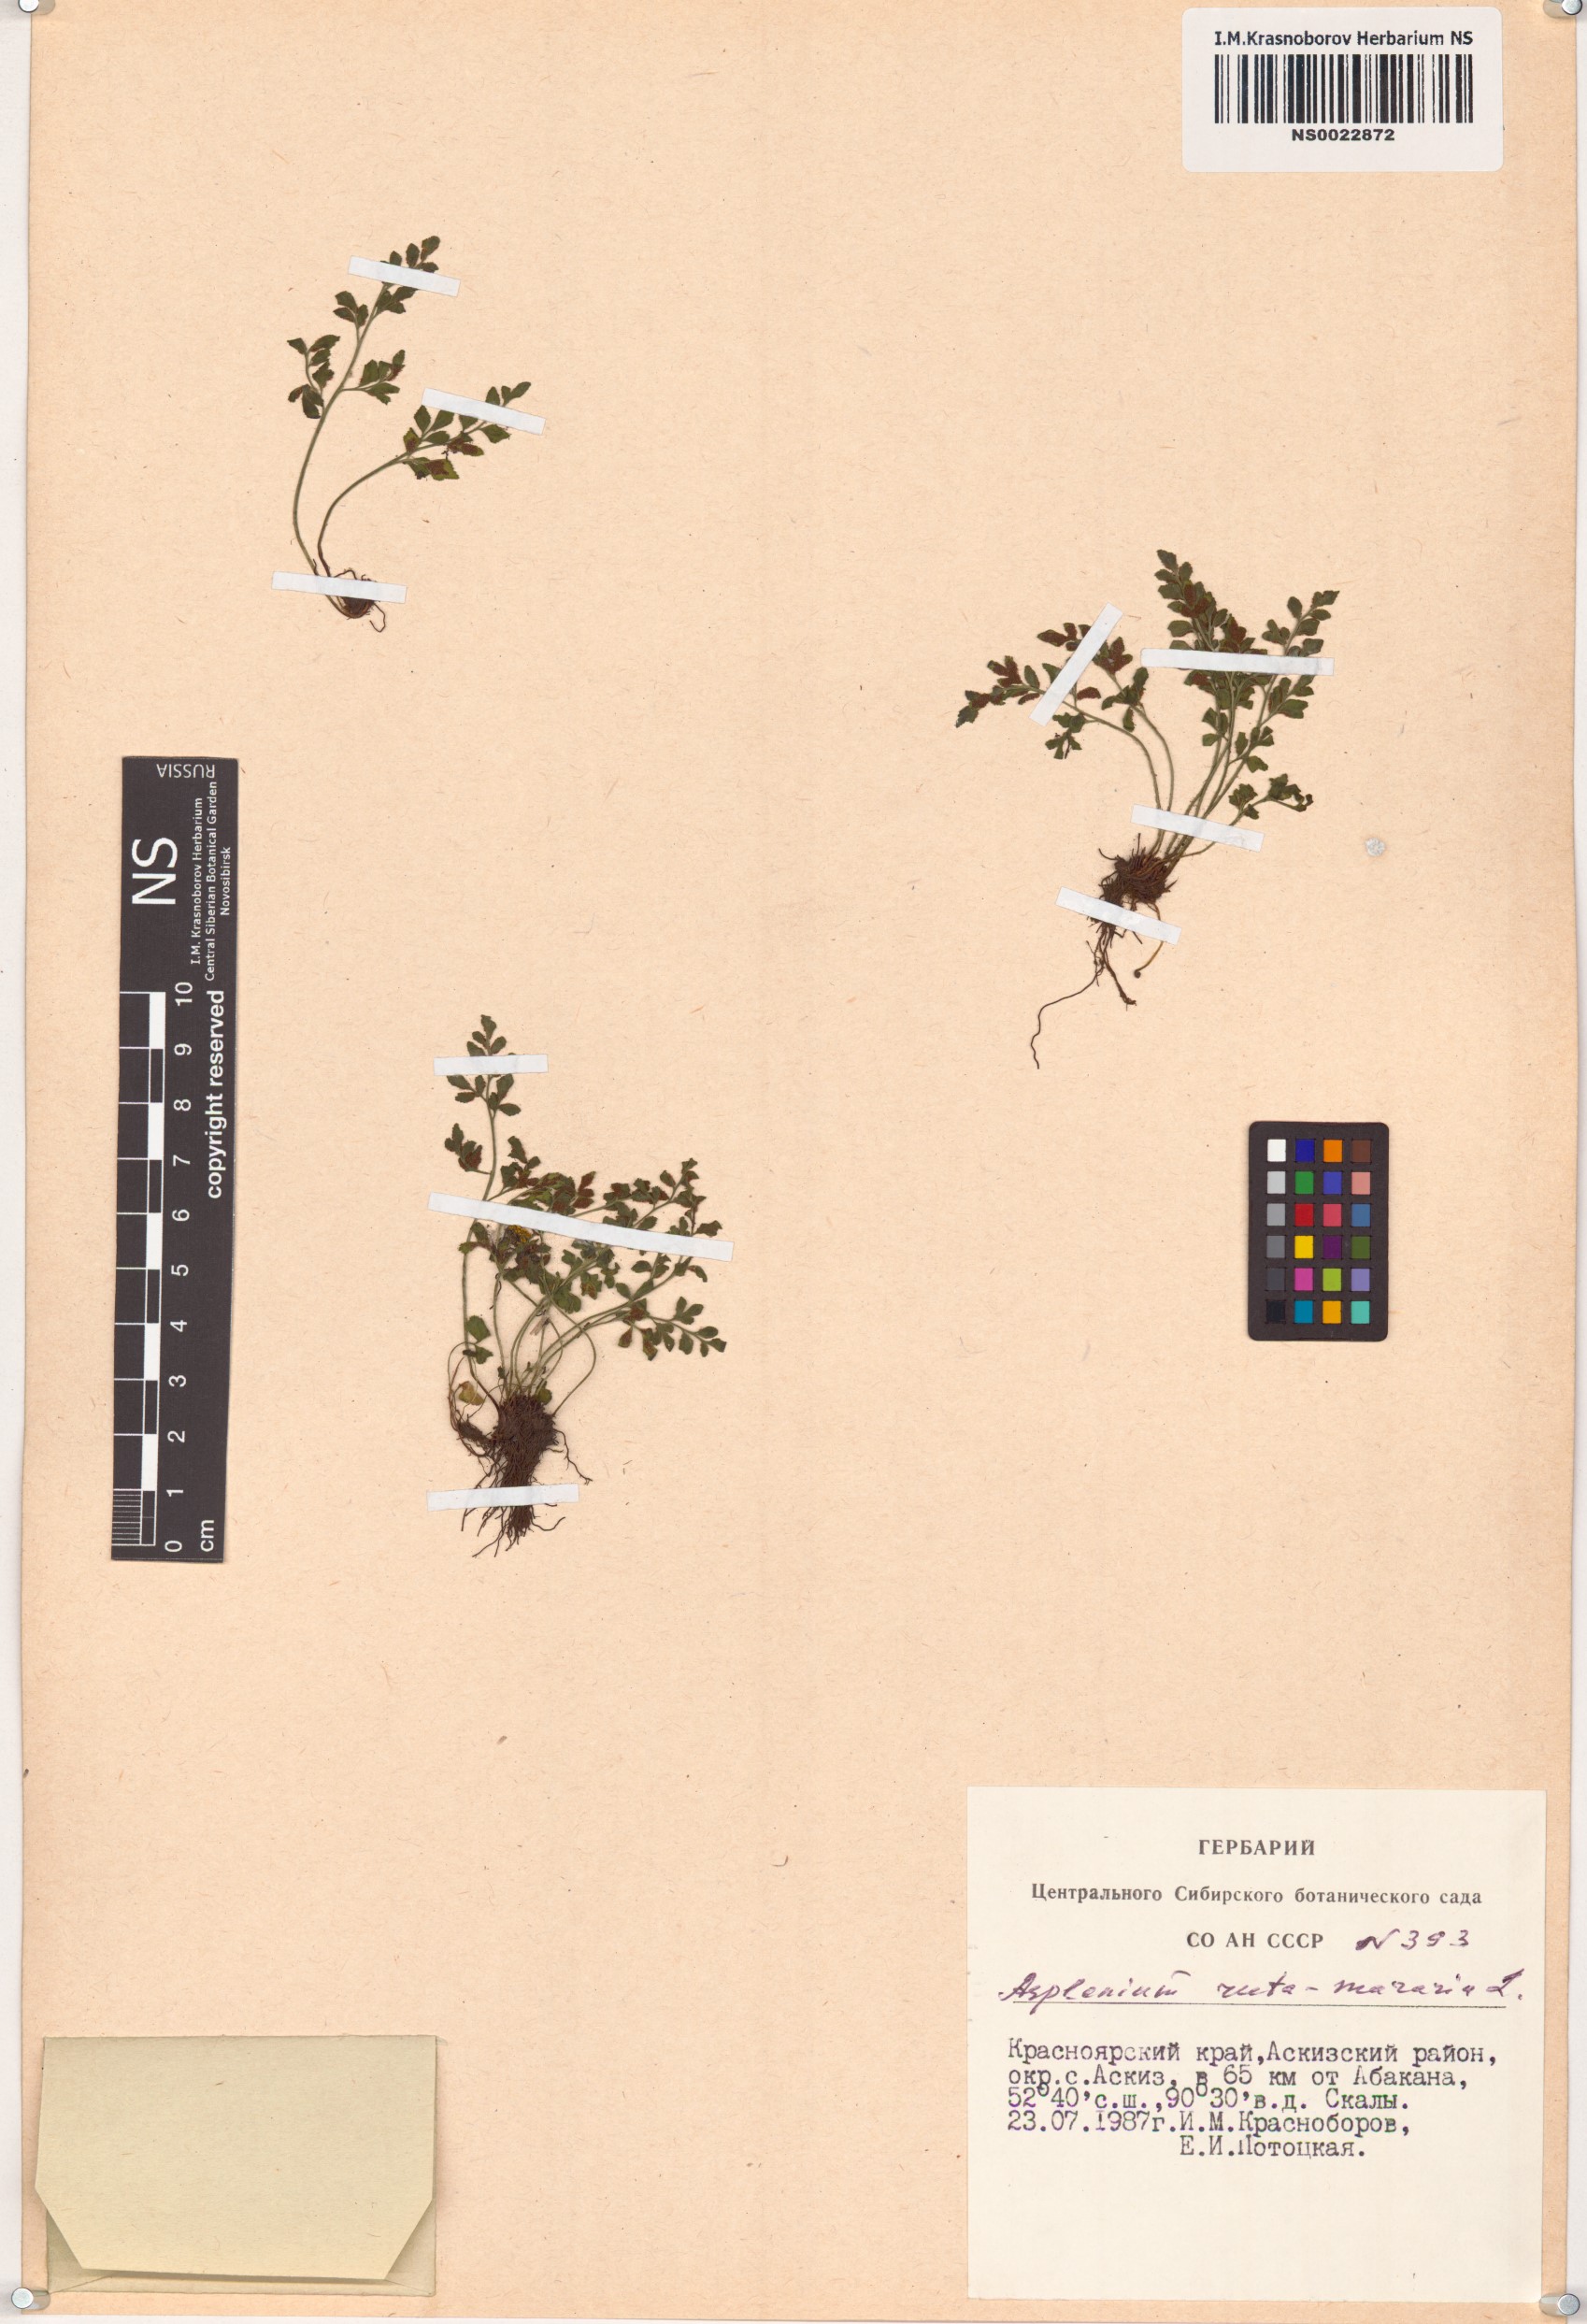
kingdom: Plantae
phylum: Tracheophyta
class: Polypodiopsida
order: Polypodiales
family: Aspleniaceae
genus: Asplenium
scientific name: Asplenium ruta-muraria
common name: Wall-rue
